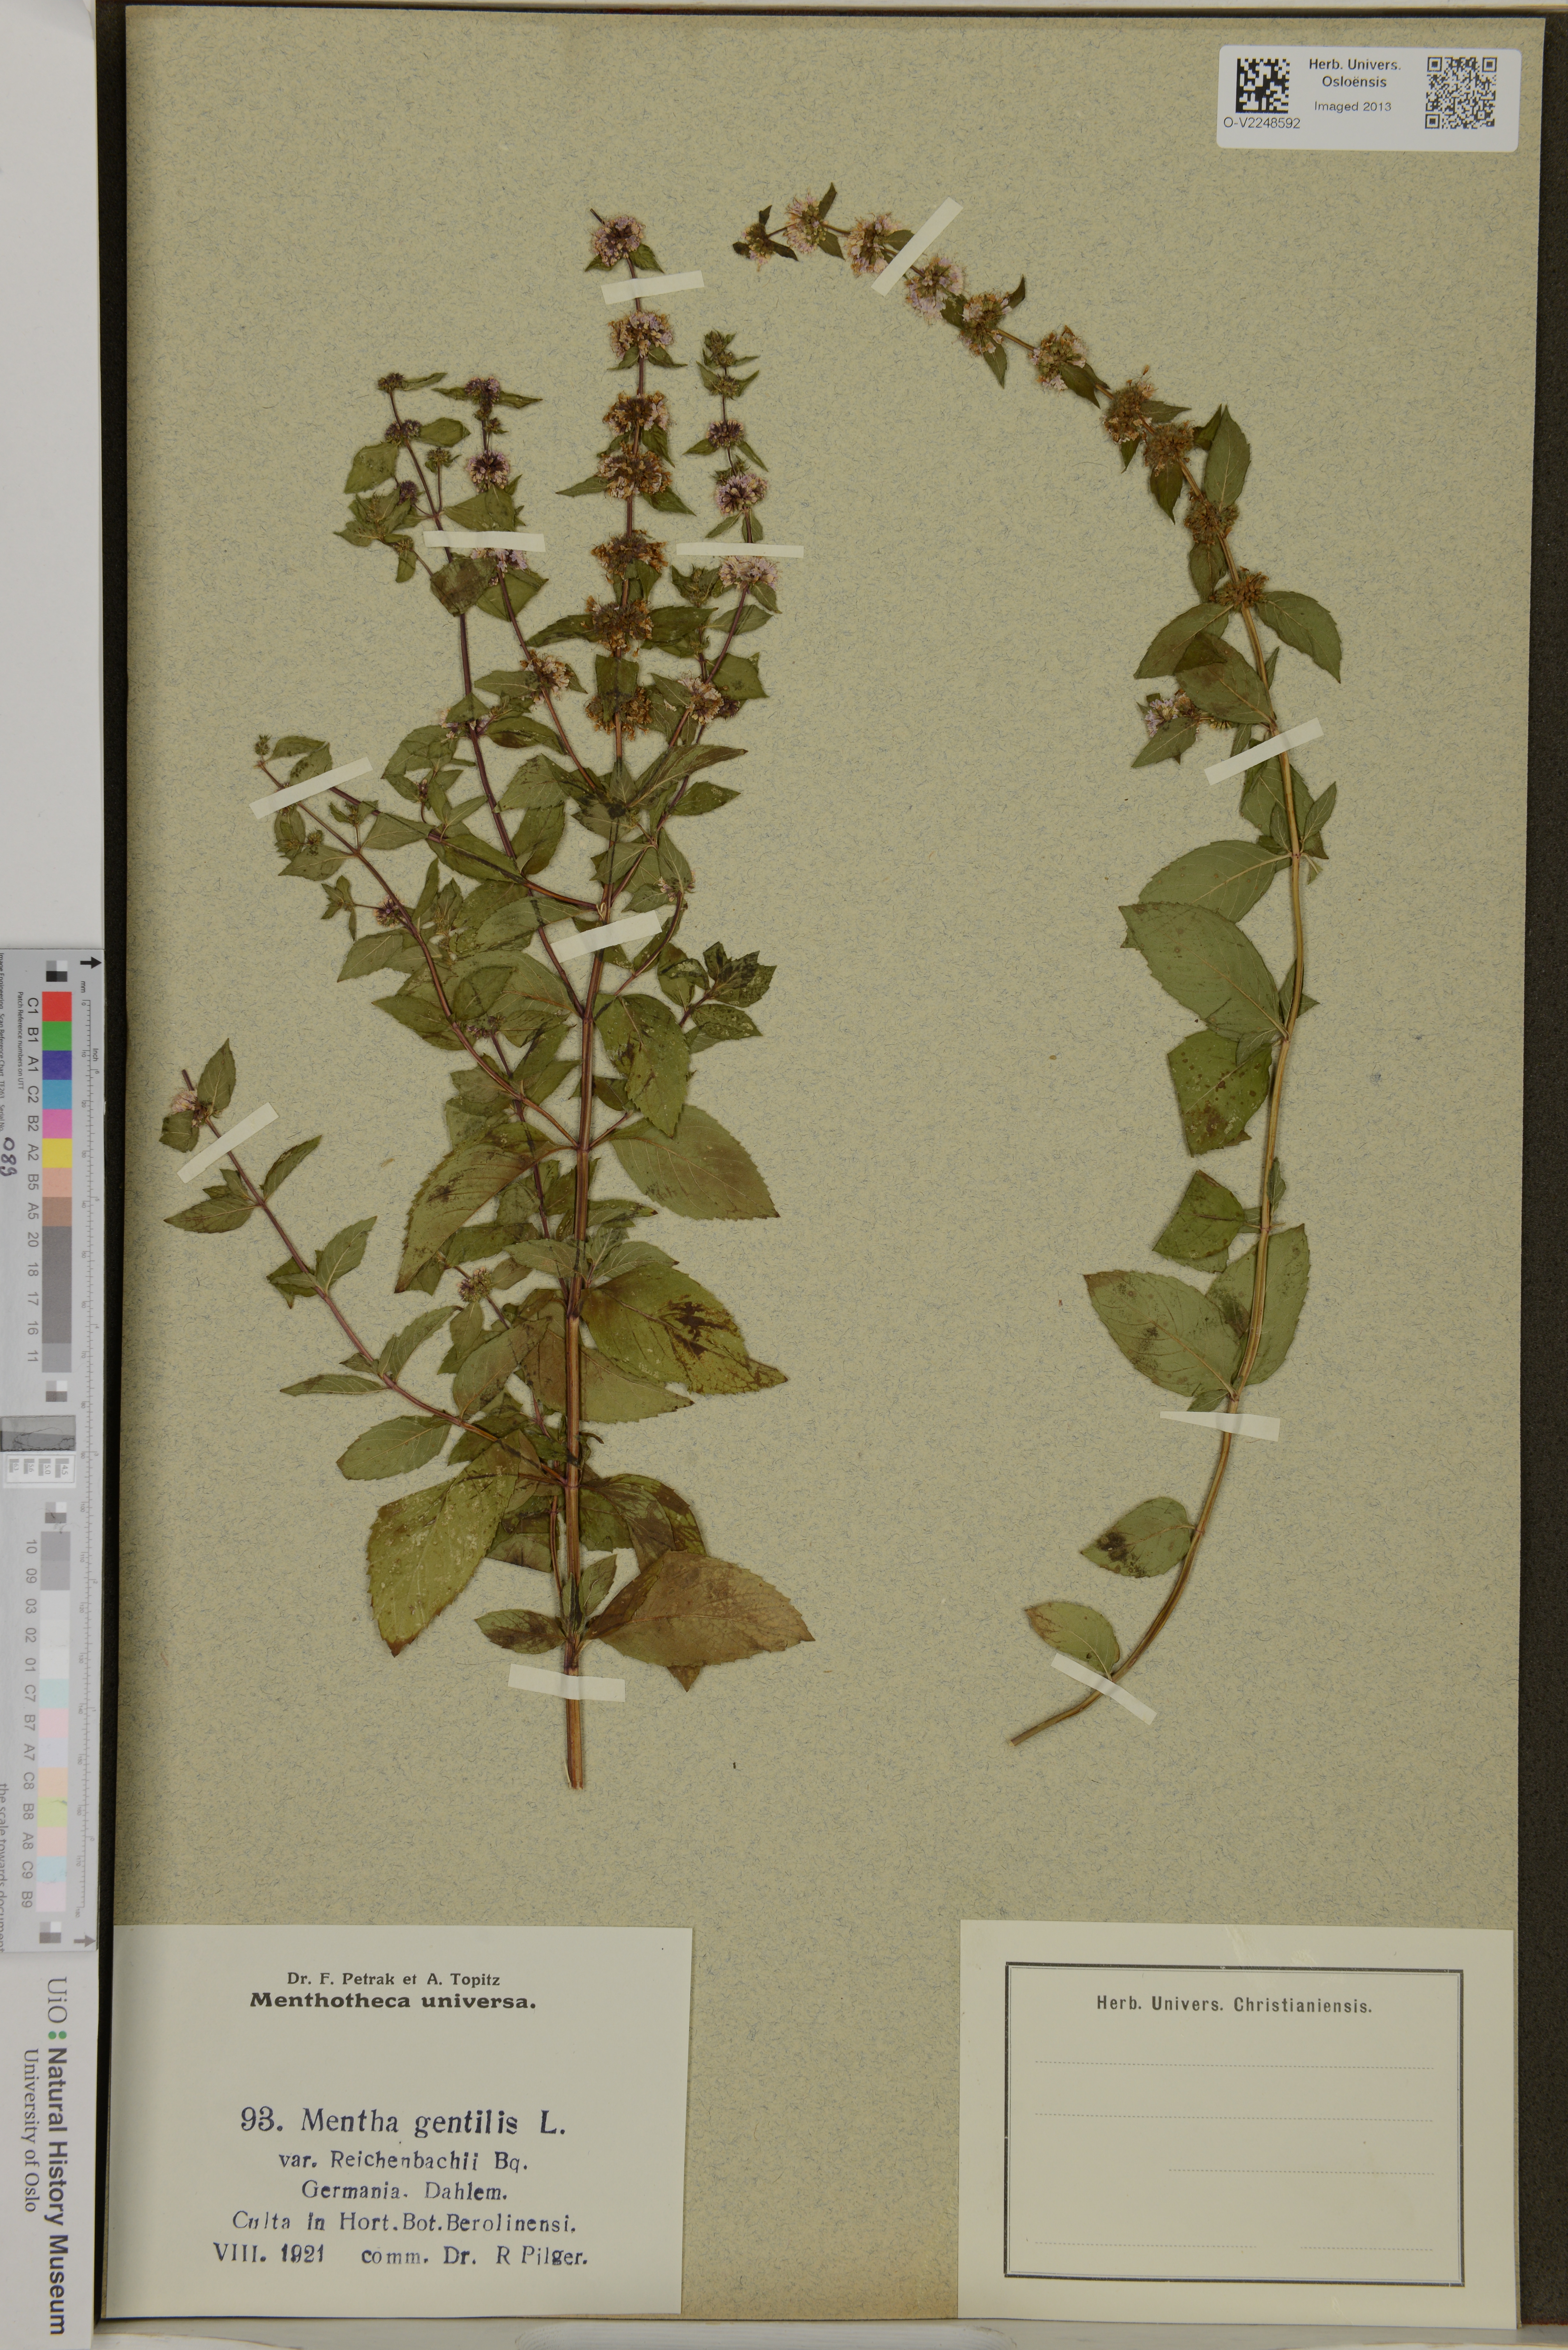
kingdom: Plantae
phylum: Tracheophyta
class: Magnoliopsida
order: Lamiales
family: Lamiaceae
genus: Mentha
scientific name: Mentha arvensis
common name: Corn mint
